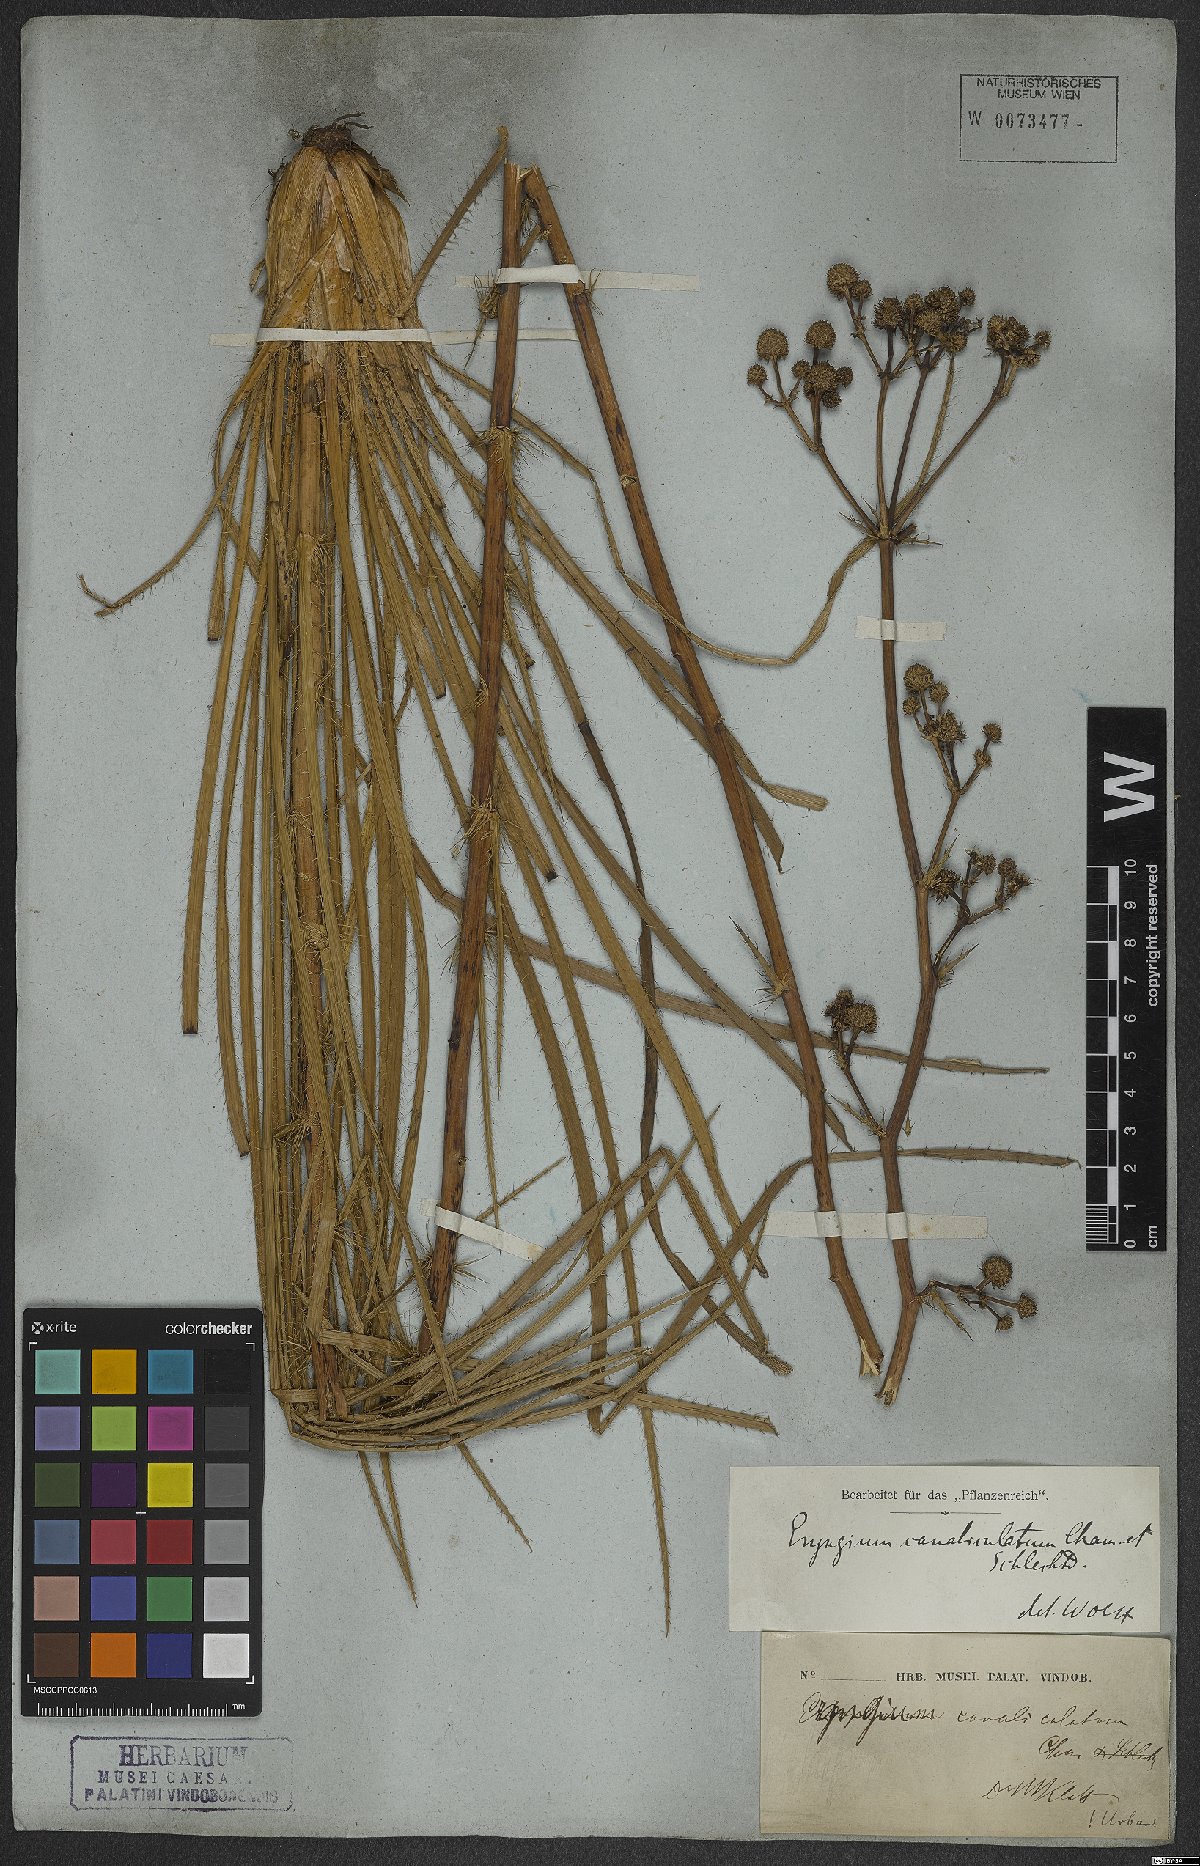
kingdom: Plantae
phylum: Tracheophyta
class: Magnoliopsida
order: Apiales
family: Apiaceae
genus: Eryngium
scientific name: Eryngium canaliculatum
